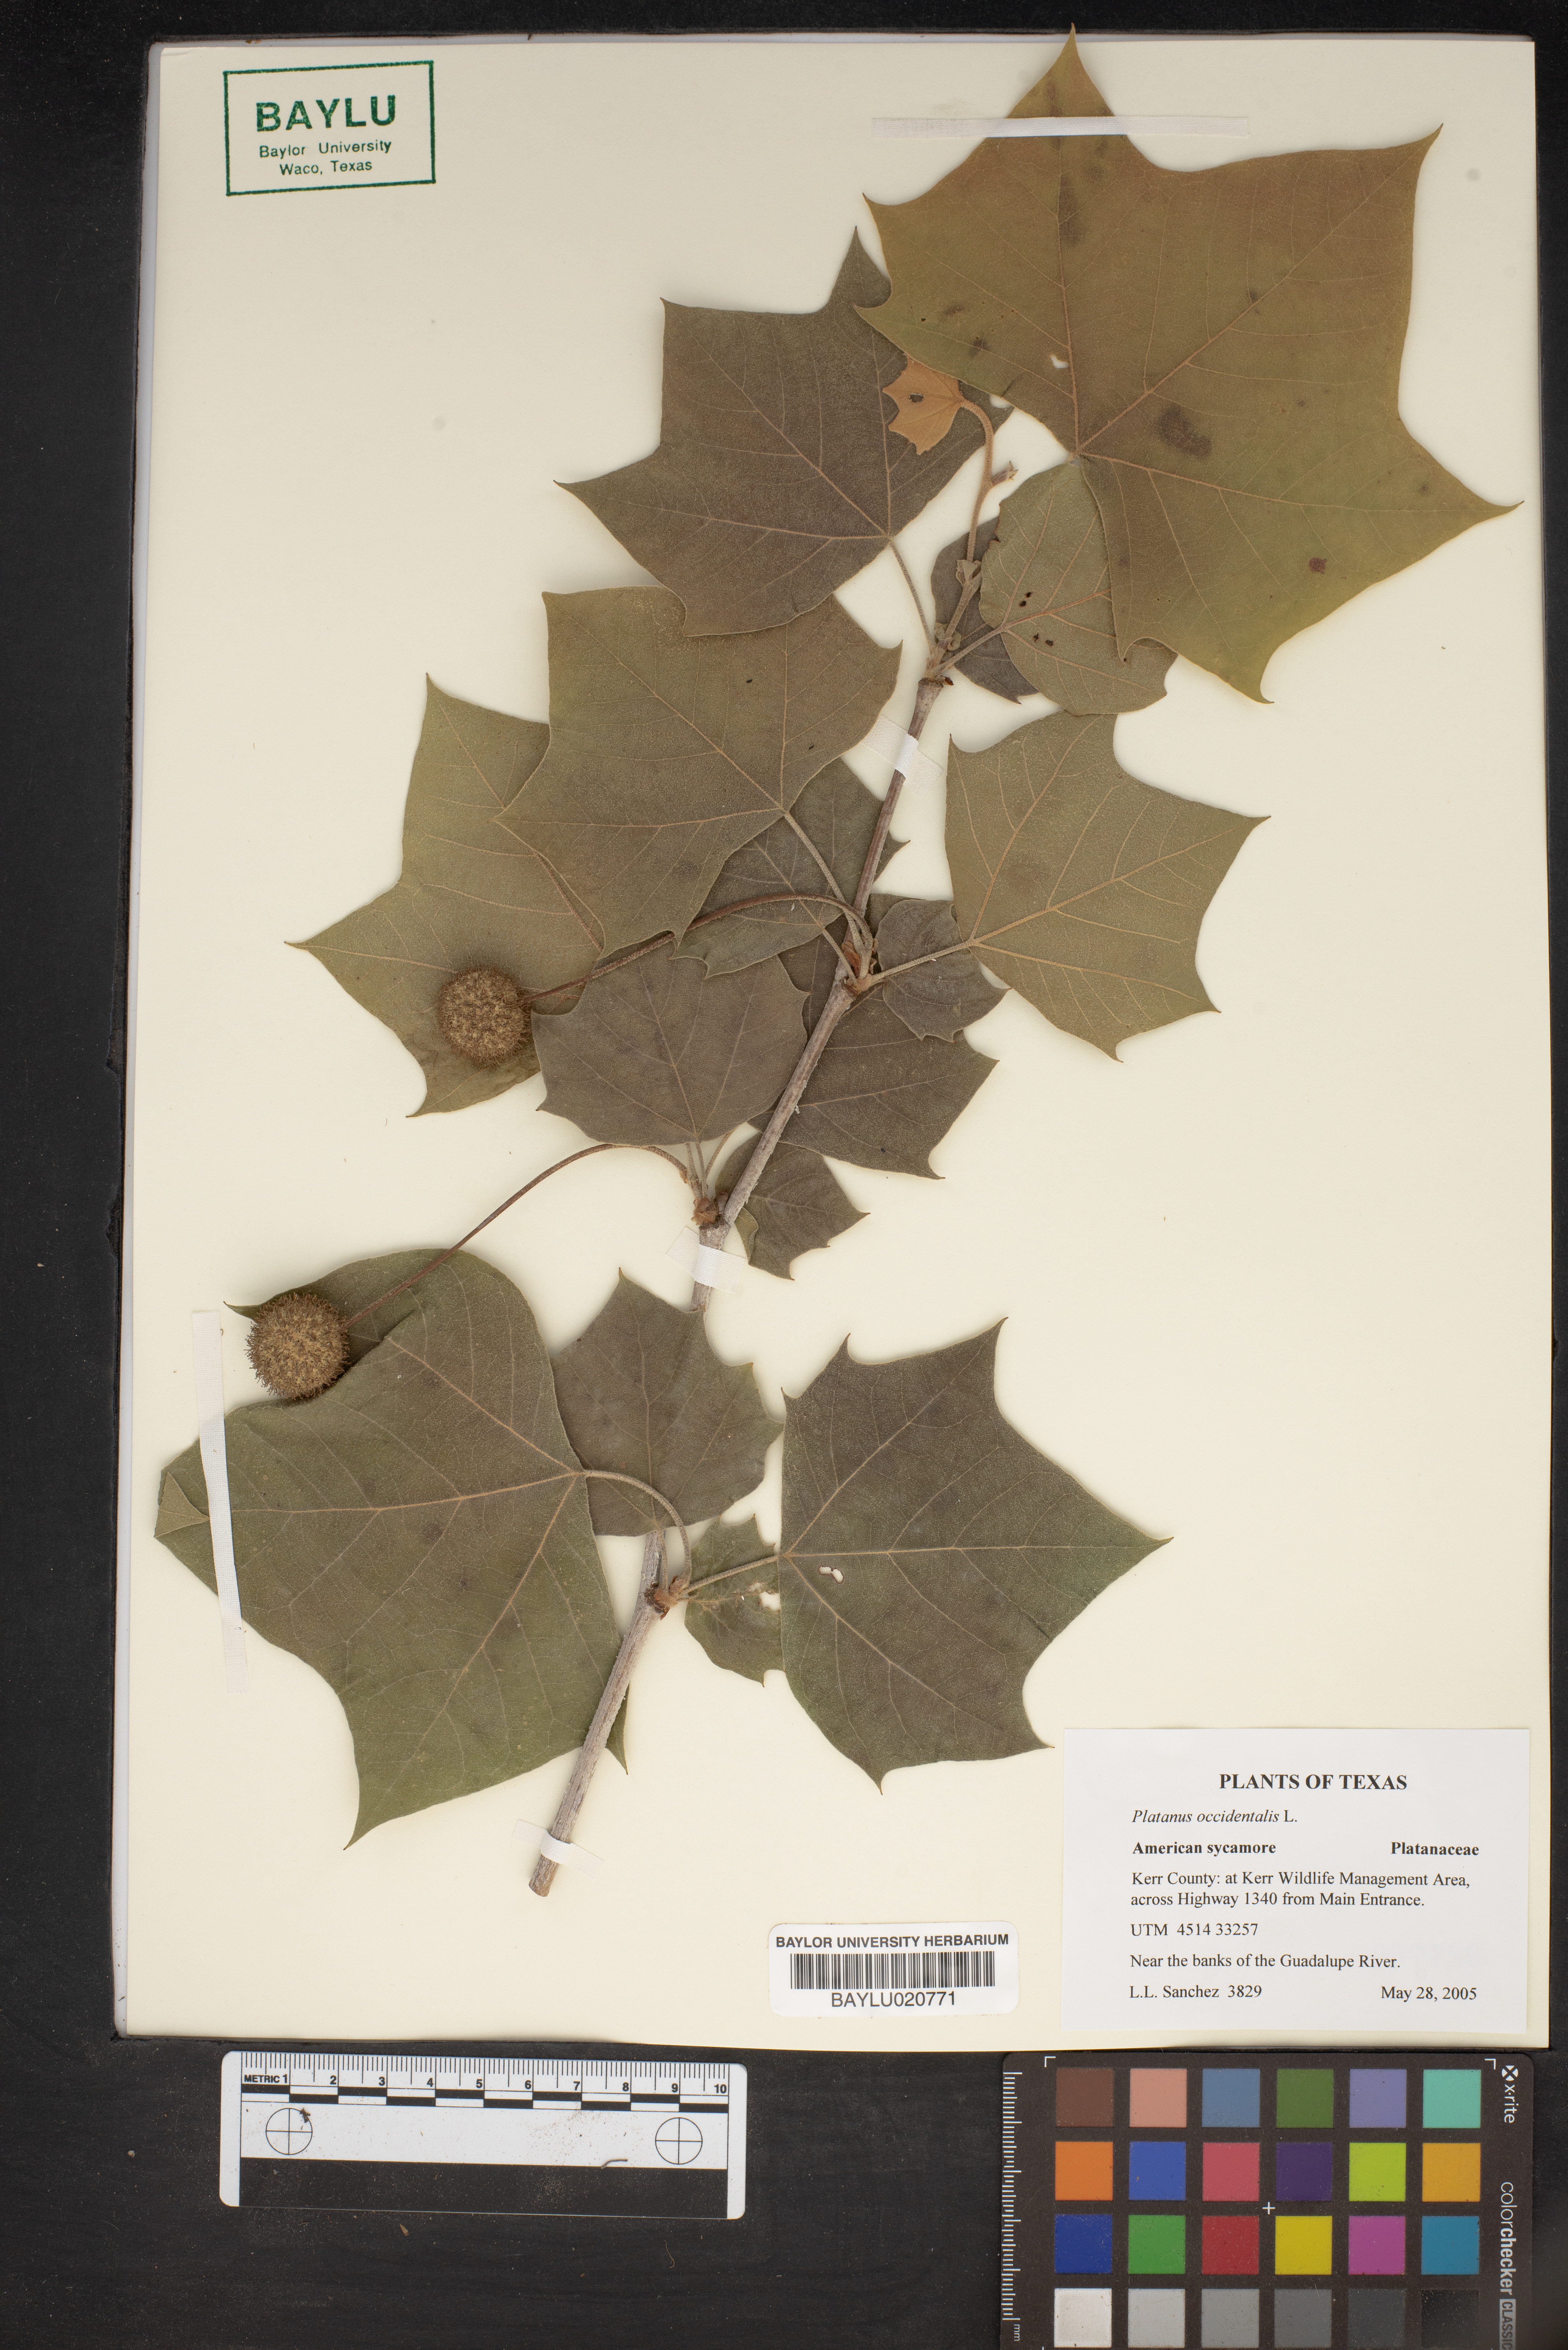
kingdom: Plantae
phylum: Tracheophyta
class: Magnoliopsida
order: Proteales
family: Platanaceae
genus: Platanus
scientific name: Platanus occidentalis
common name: American sycamore
